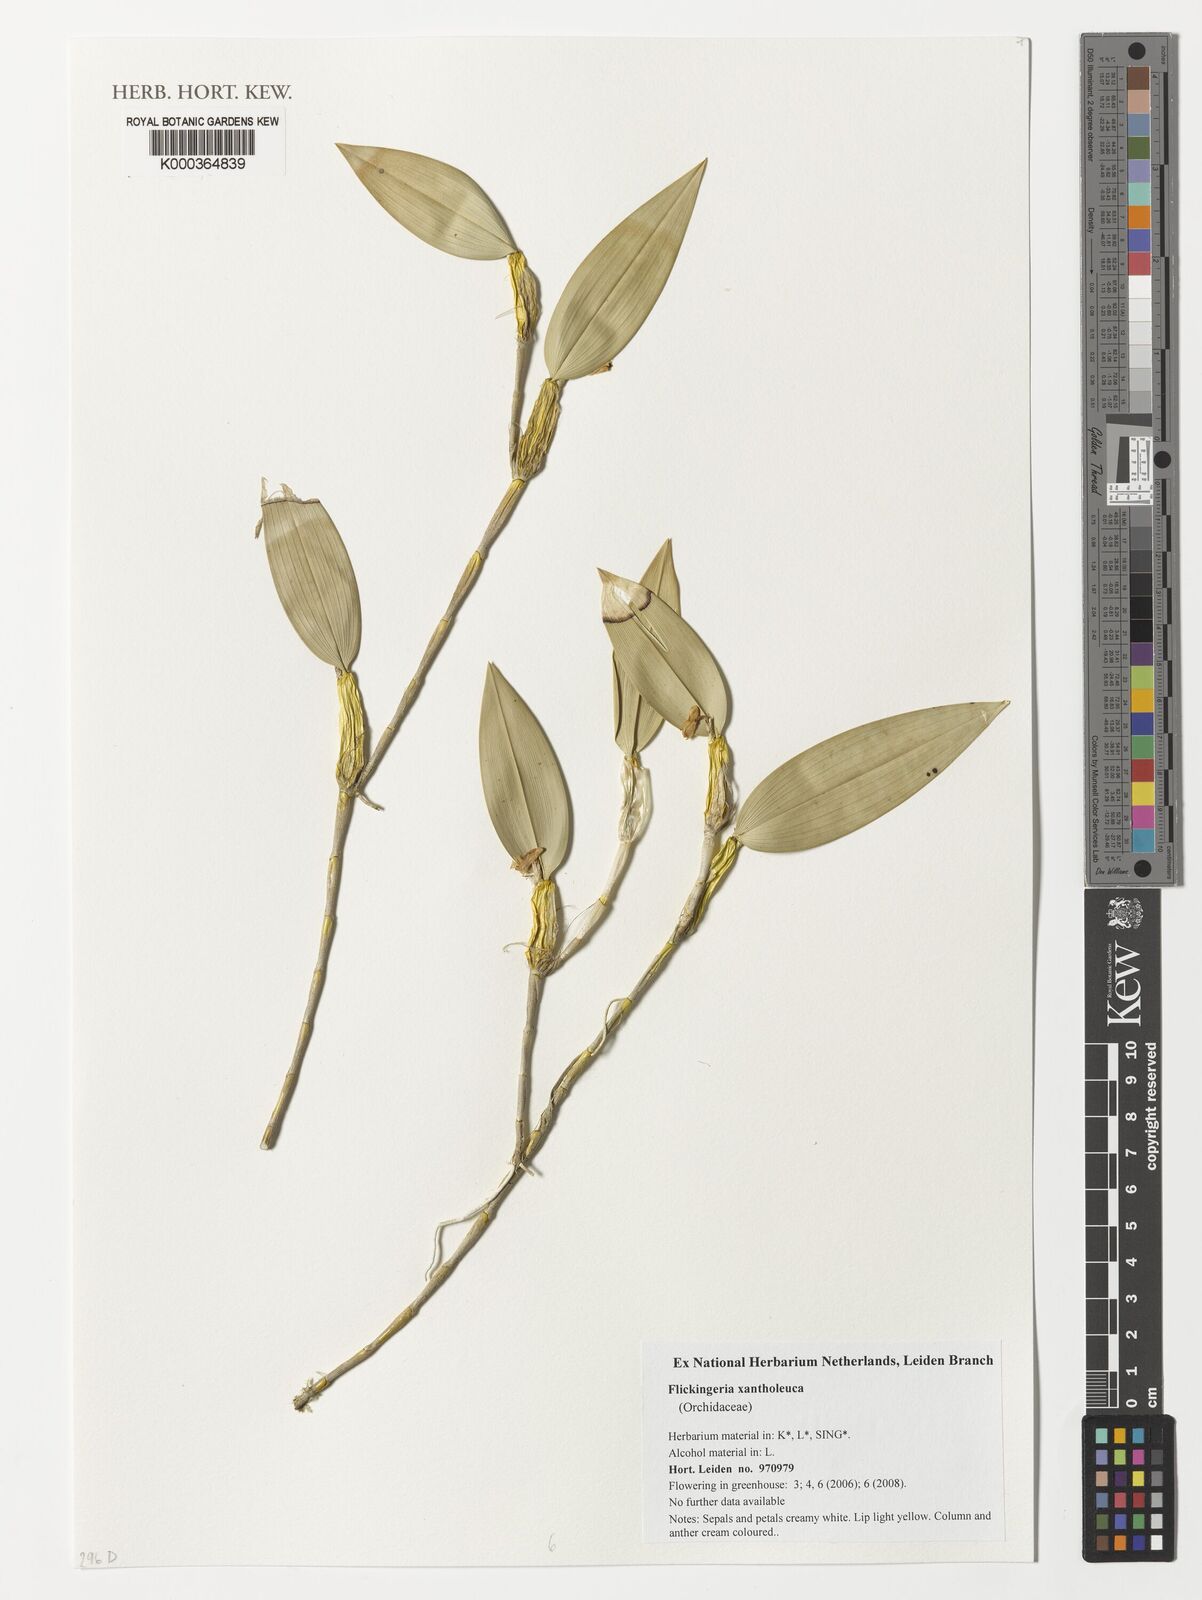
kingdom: Plantae
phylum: Tracheophyta
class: Liliopsida
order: Asparagales
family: Orchidaceae
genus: Dendrobium
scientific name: Dendrobium xantholeucum
